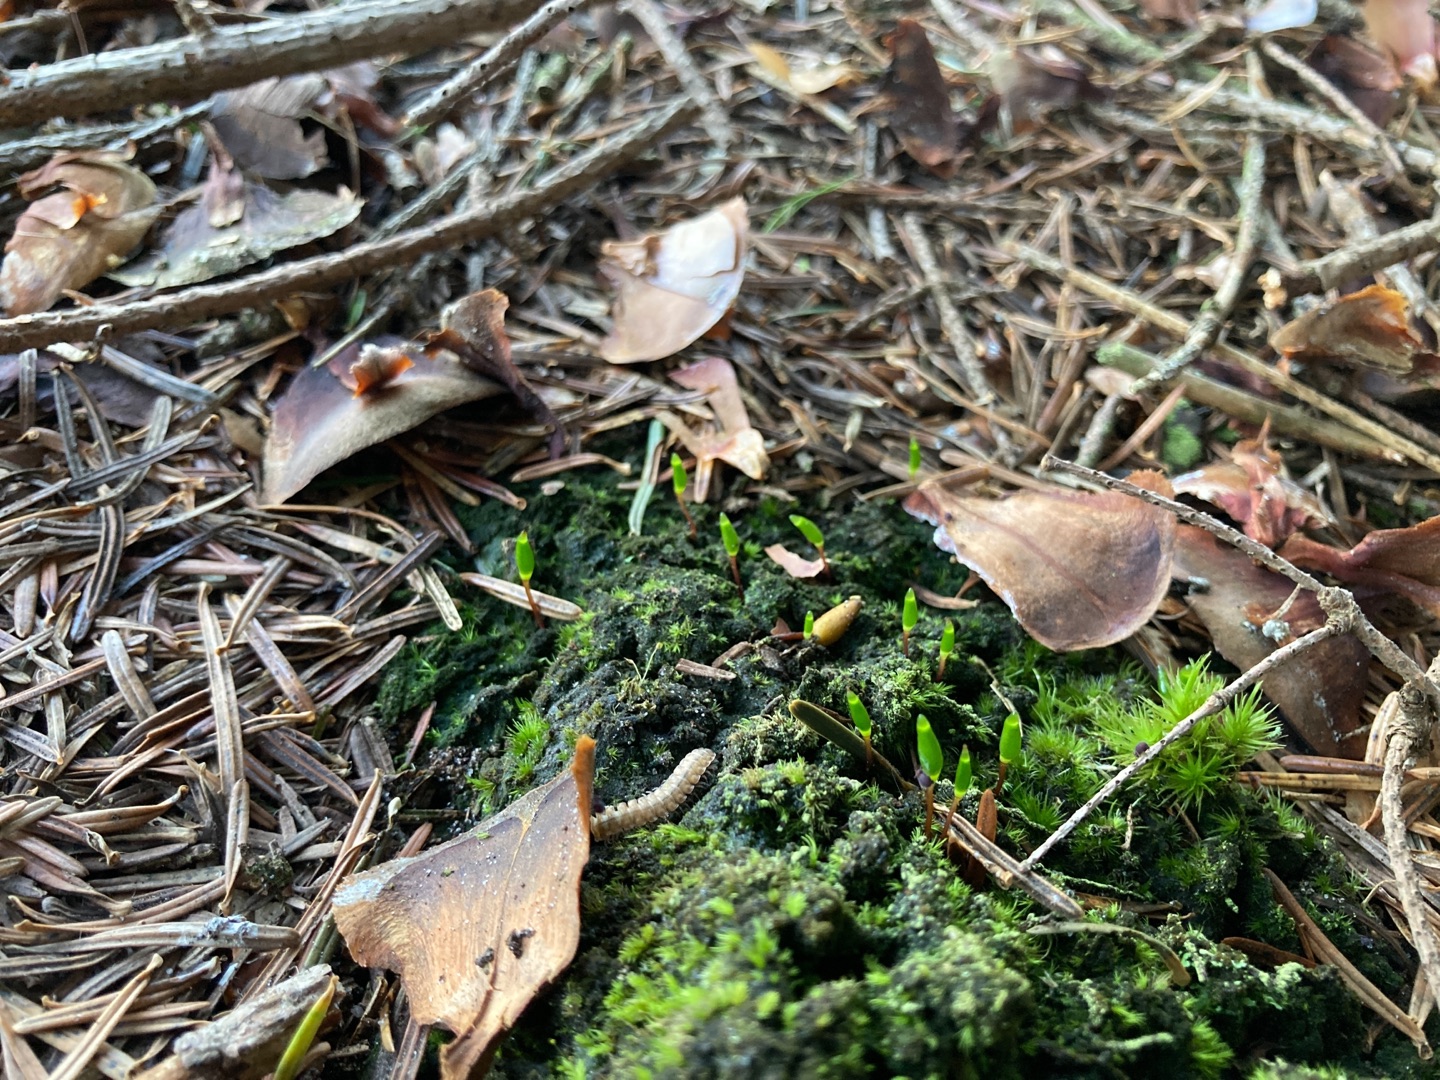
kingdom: Plantae
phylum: Bryophyta
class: Bryopsida
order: Buxbaumiales
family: Buxbaumiaceae
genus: Buxbaumia
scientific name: Buxbaumia viridis
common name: Grøn buxbaumia
